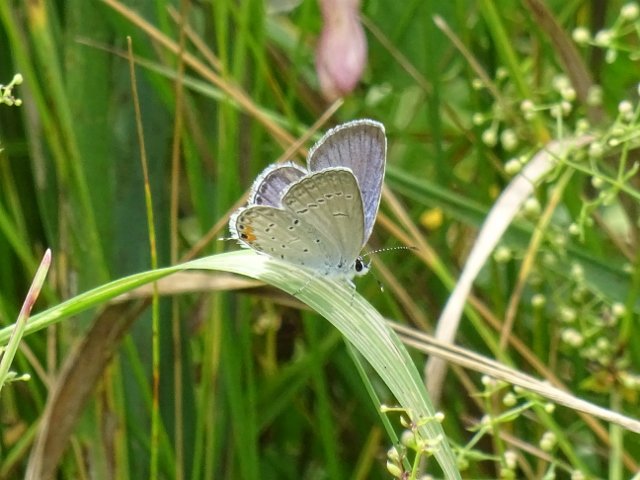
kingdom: Animalia
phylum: Arthropoda
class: Insecta
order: Lepidoptera
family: Lycaenidae
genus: Elkalyce
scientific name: Elkalyce comyntas
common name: Eastern Tailed-Blue
